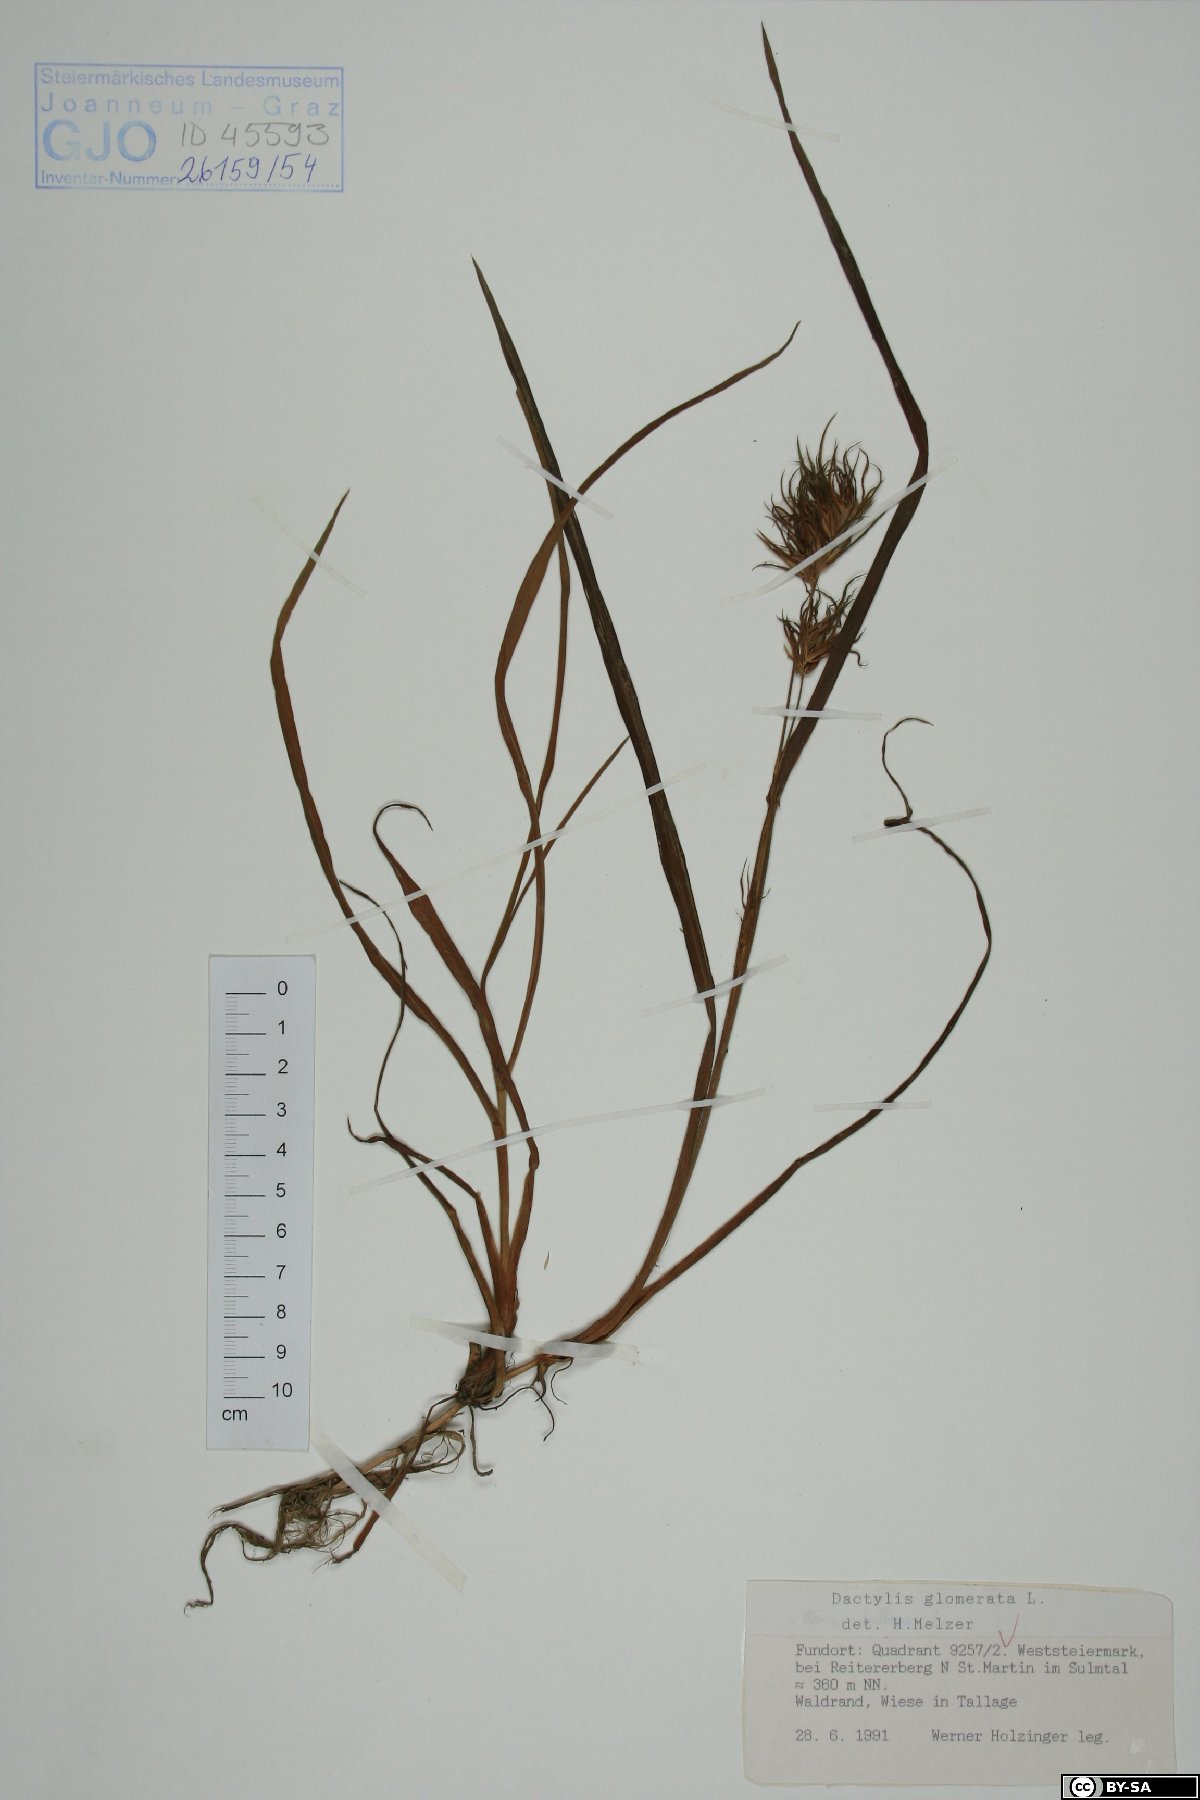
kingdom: Plantae
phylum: Tracheophyta
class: Liliopsida
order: Poales
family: Poaceae
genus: Dactylis
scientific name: Dactylis glomerata
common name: Orchardgrass
